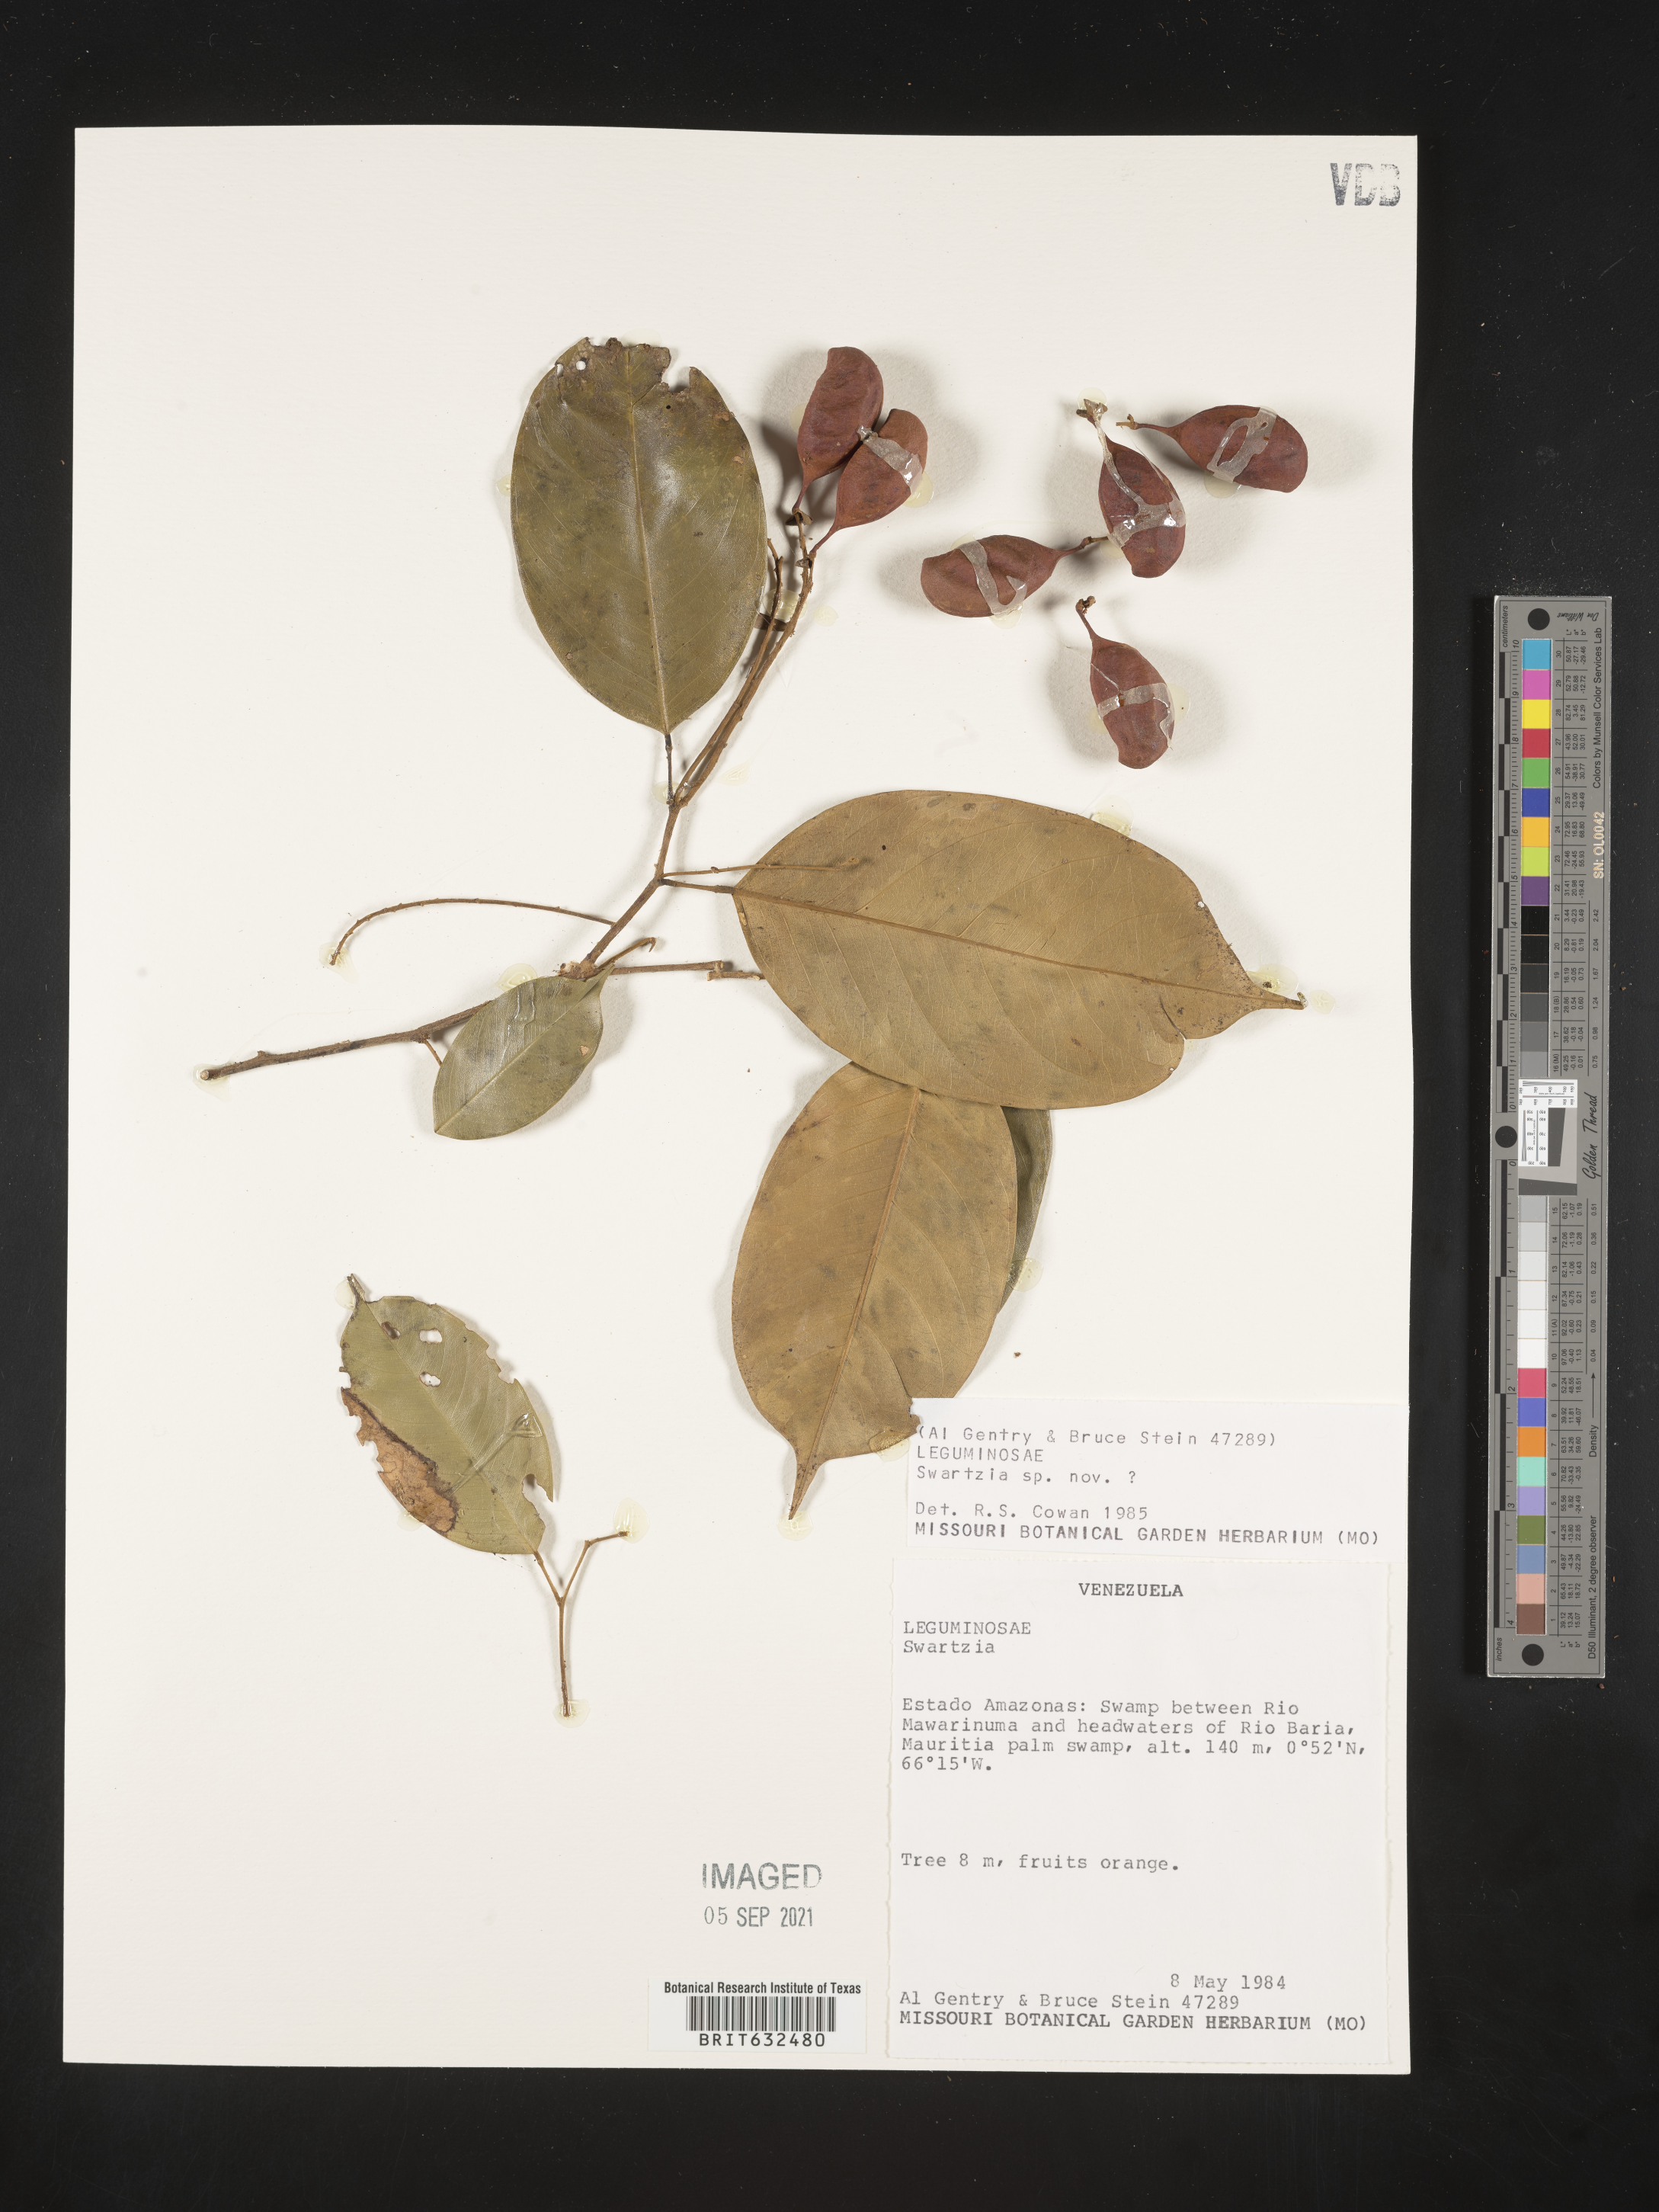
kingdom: Plantae
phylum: Tracheophyta
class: Magnoliopsida
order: Fabales
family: Fabaceae
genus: Swartzia
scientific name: Swartzia
